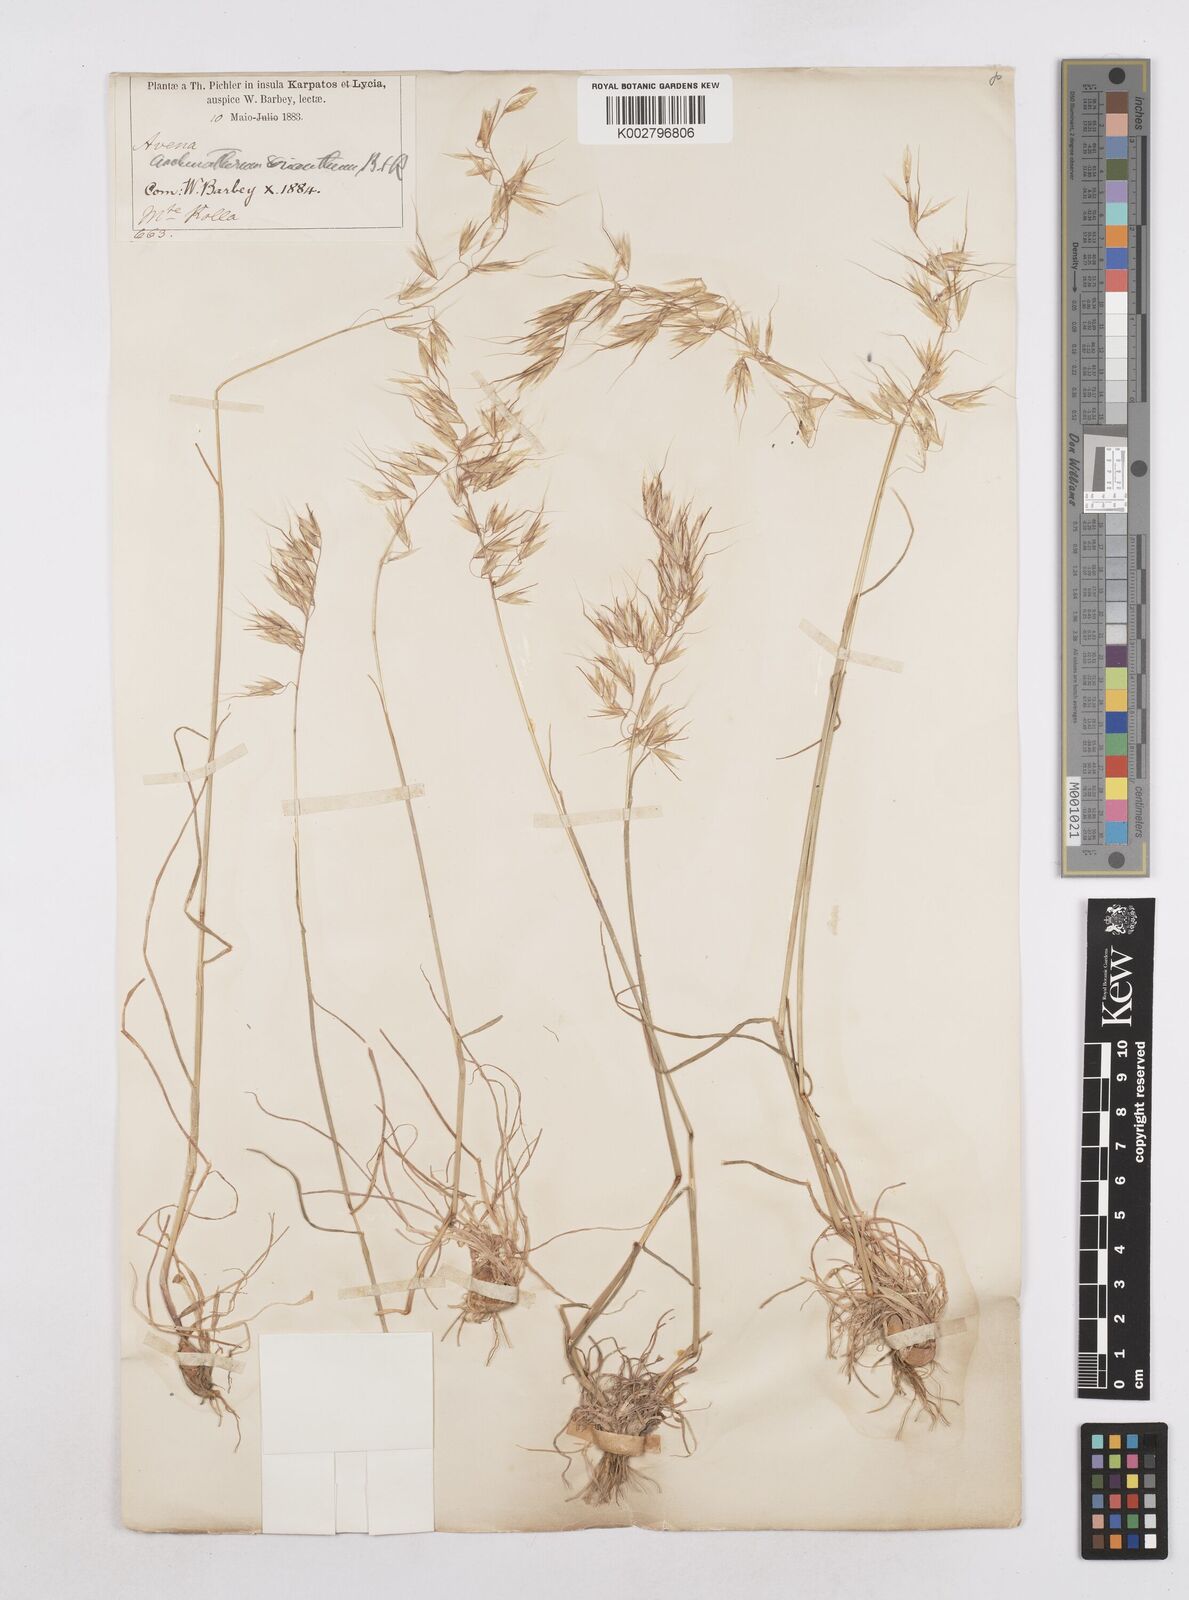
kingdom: Plantae
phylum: Tracheophyta
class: Liliopsida
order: Poales
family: Poaceae
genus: Arrhenatherum
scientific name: Arrhenatherum palaestinum
